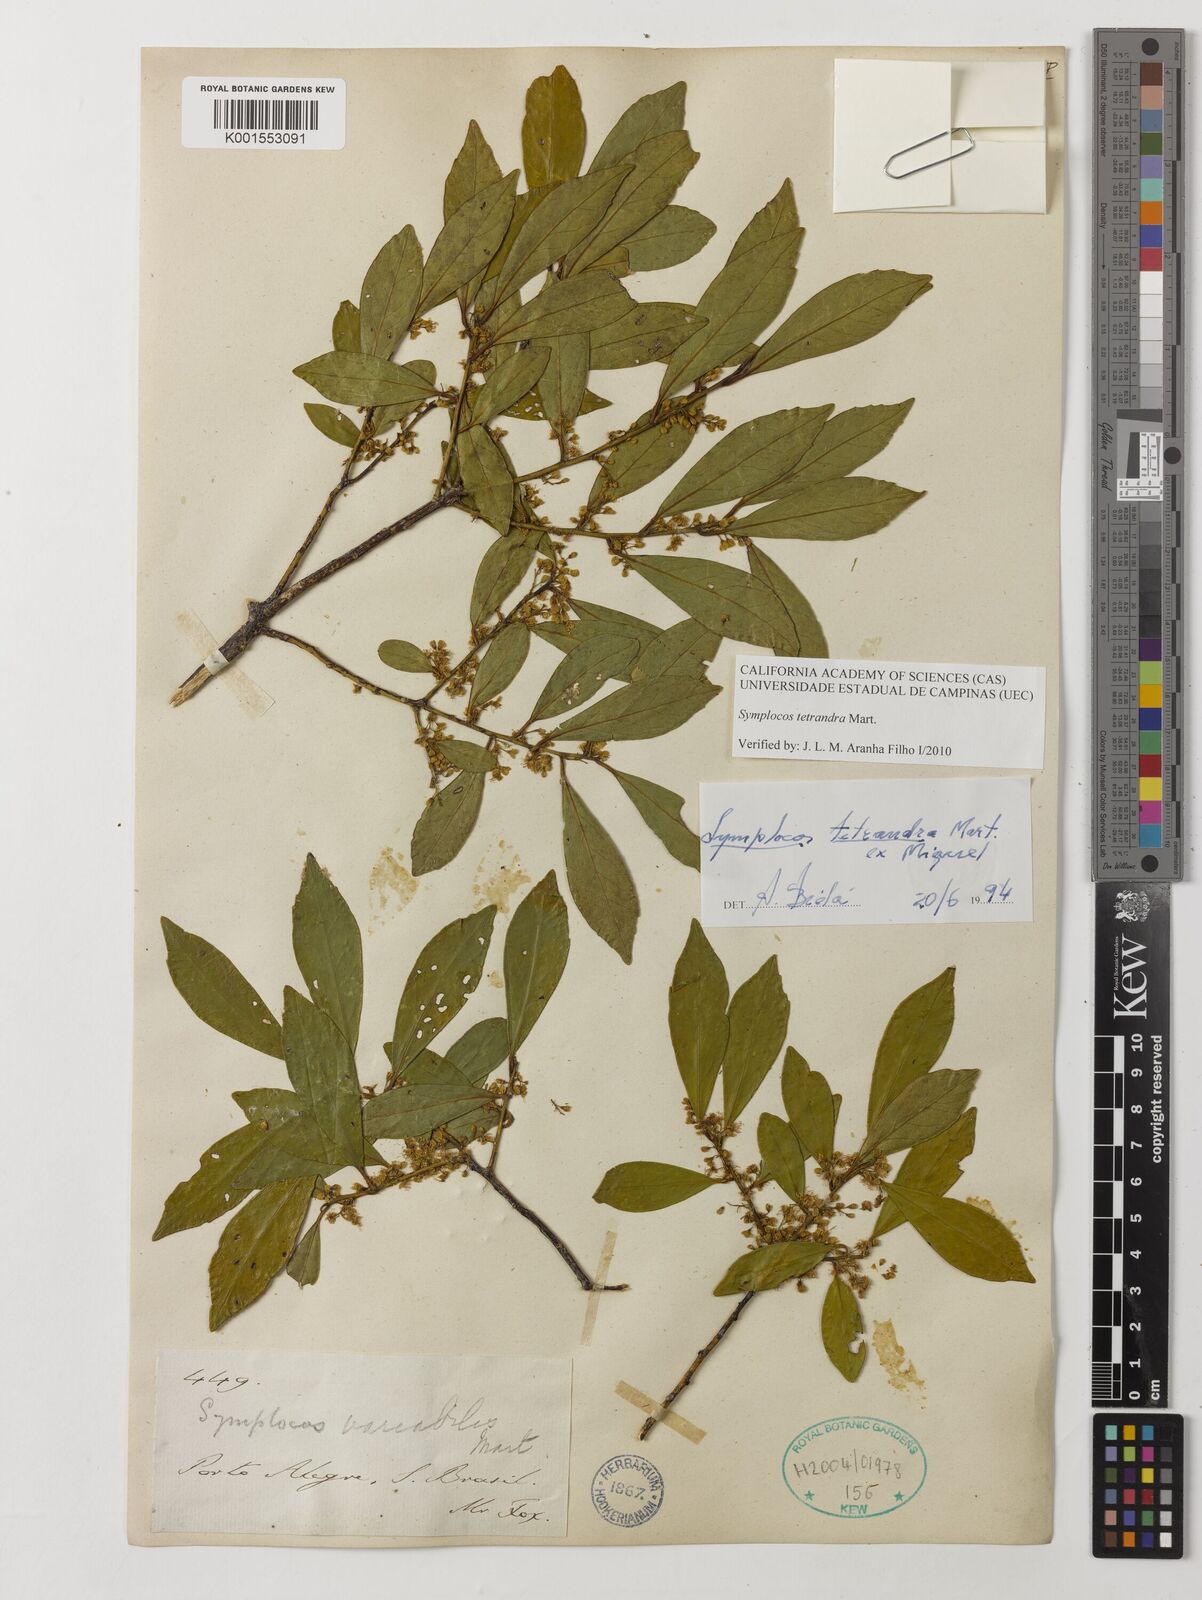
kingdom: Plantae
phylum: Tracheophyta
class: Magnoliopsida
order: Ericales
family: Symplocaceae
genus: Symplocos
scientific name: Symplocos tetrandra
